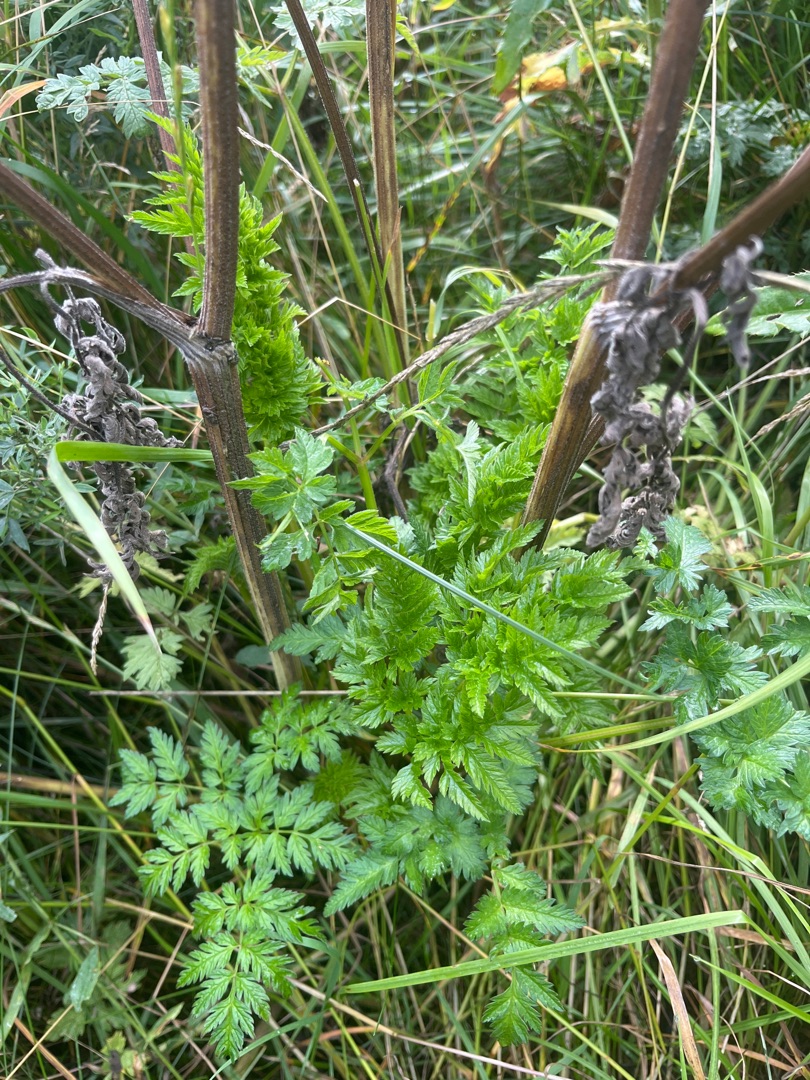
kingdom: Plantae
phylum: Tracheophyta
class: Magnoliopsida
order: Apiales
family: Apiaceae
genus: Anthriscus
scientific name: Anthriscus sylvestris
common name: Vild kørvel
